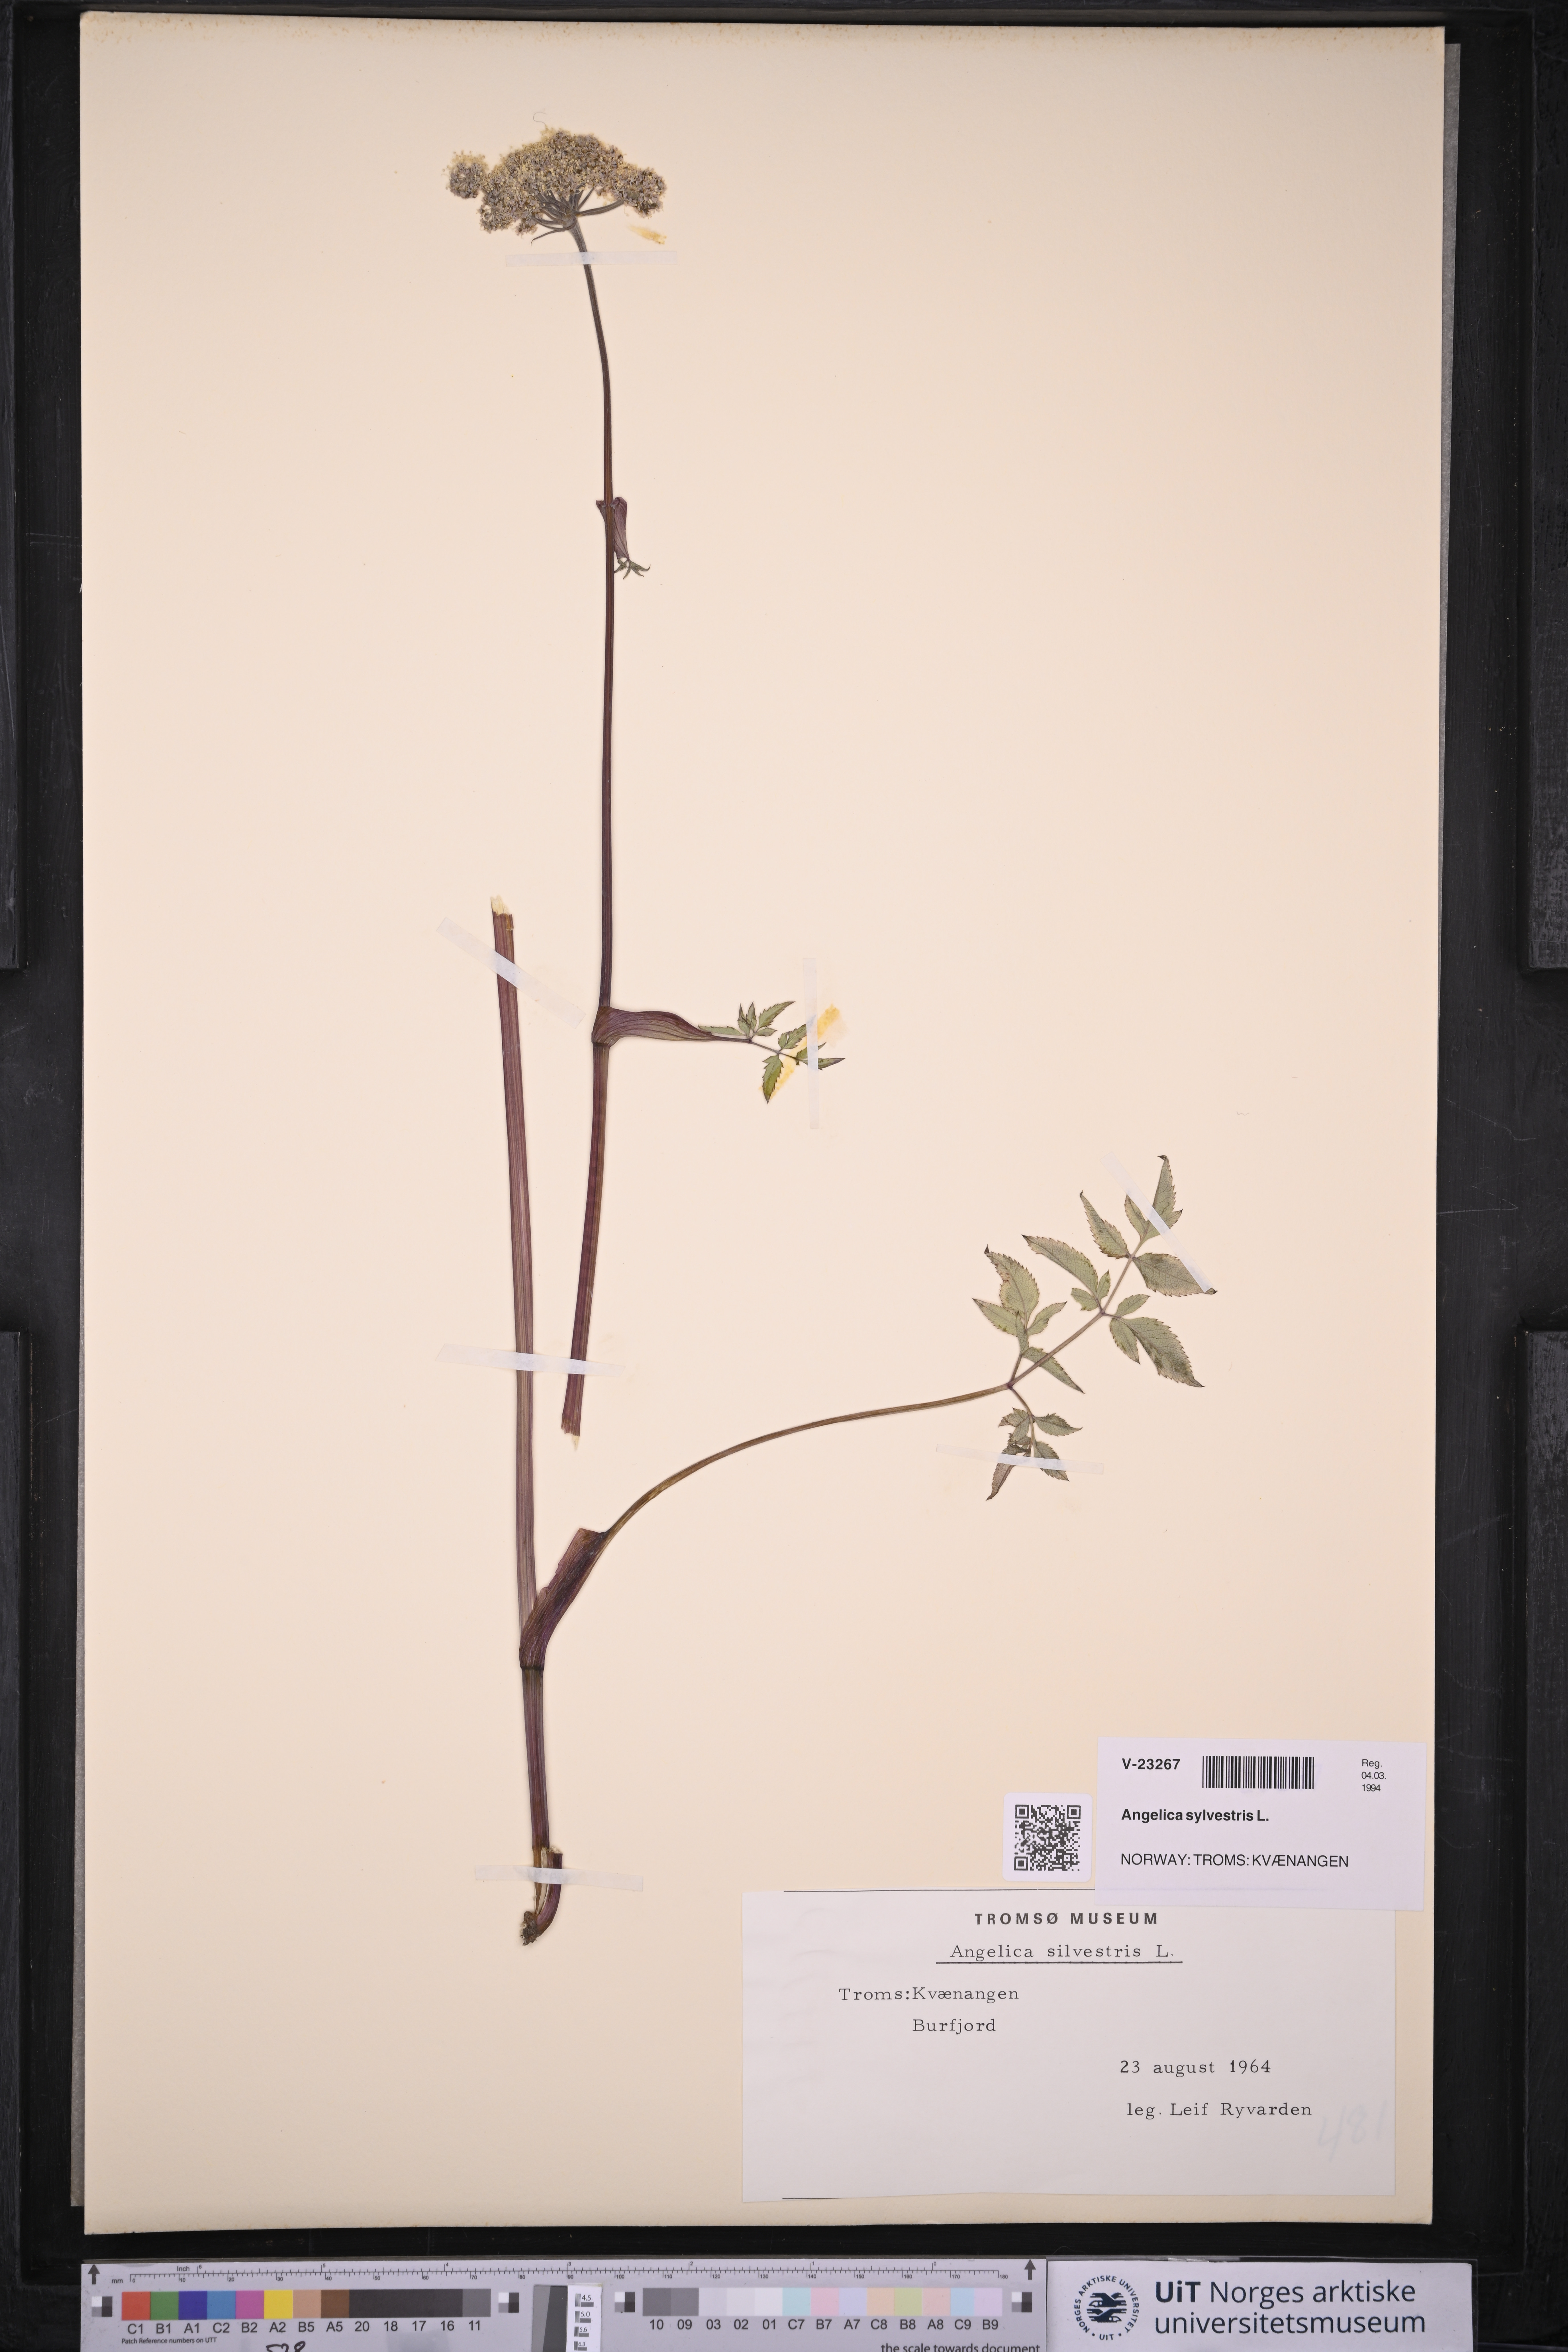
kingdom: Plantae
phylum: Tracheophyta
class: Magnoliopsida
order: Apiales
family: Apiaceae
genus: Angelica
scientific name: Angelica sylvestris
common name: Wild angelica
